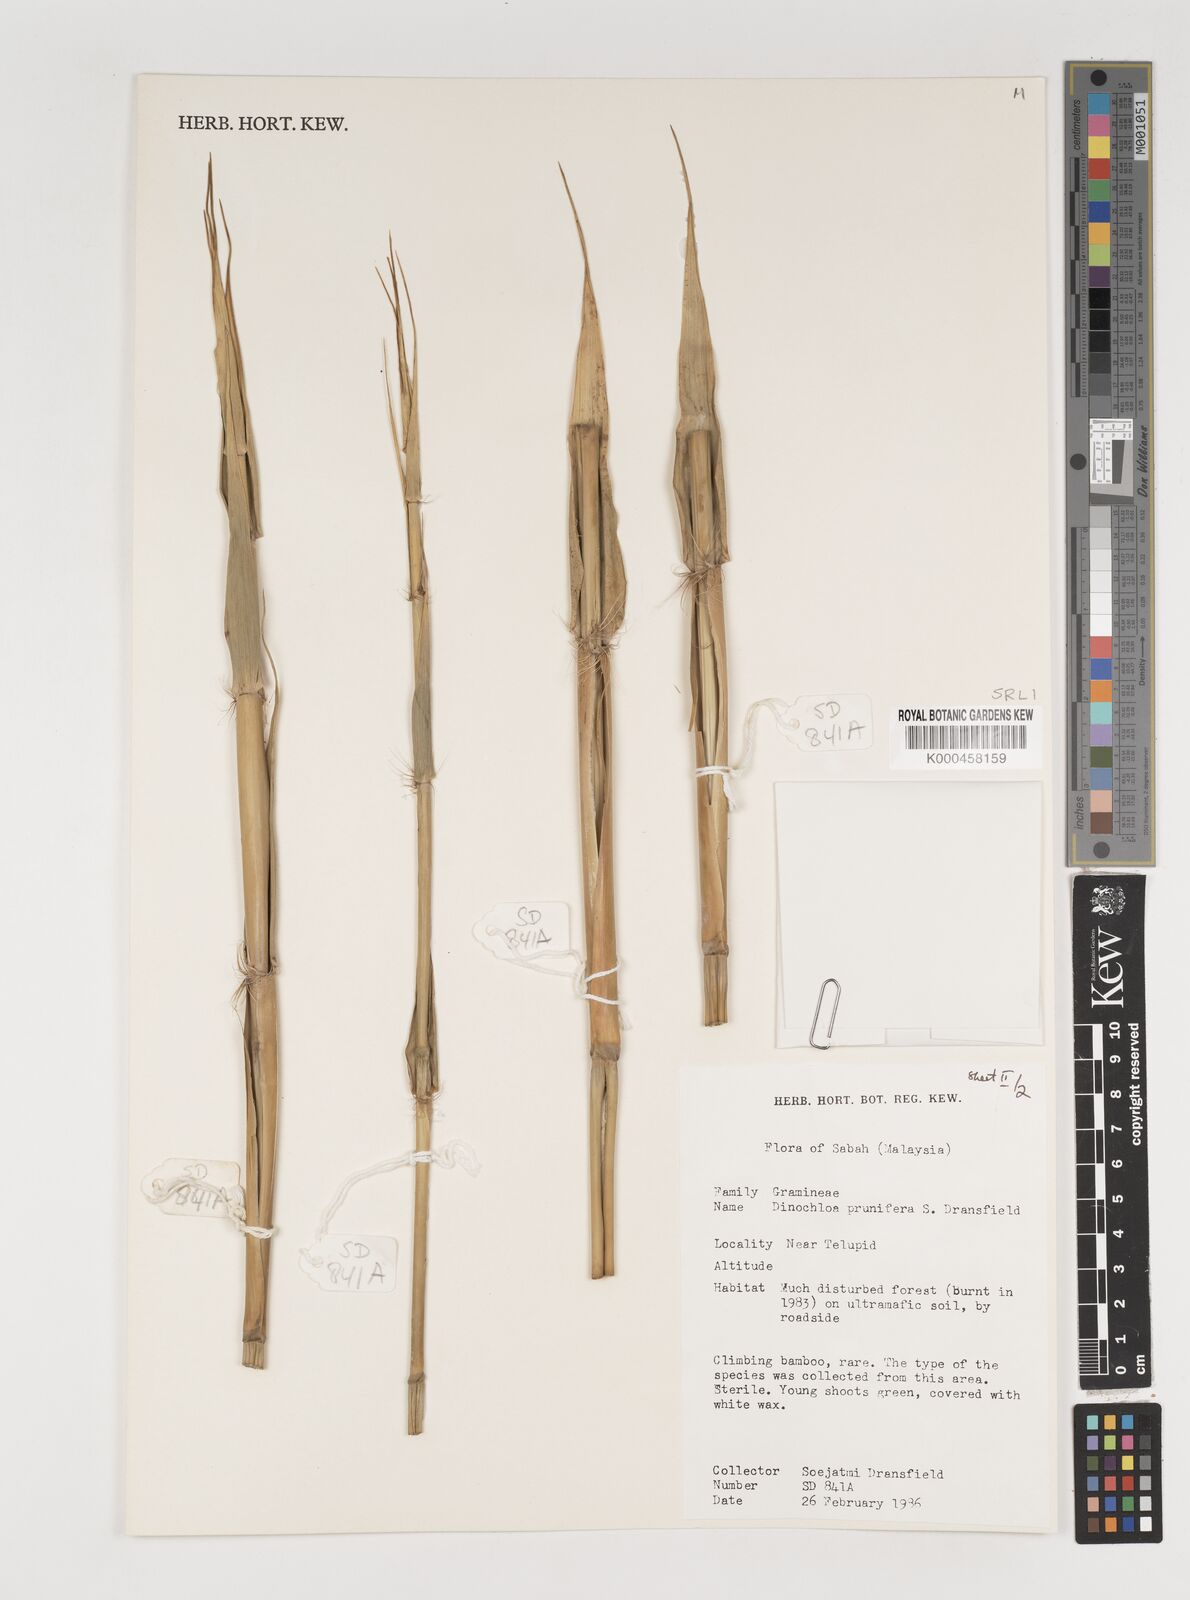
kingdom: Plantae
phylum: Tracheophyta
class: Liliopsida
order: Poales
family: Poaceae
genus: Dinochloa
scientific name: Dinochloa prunifera
